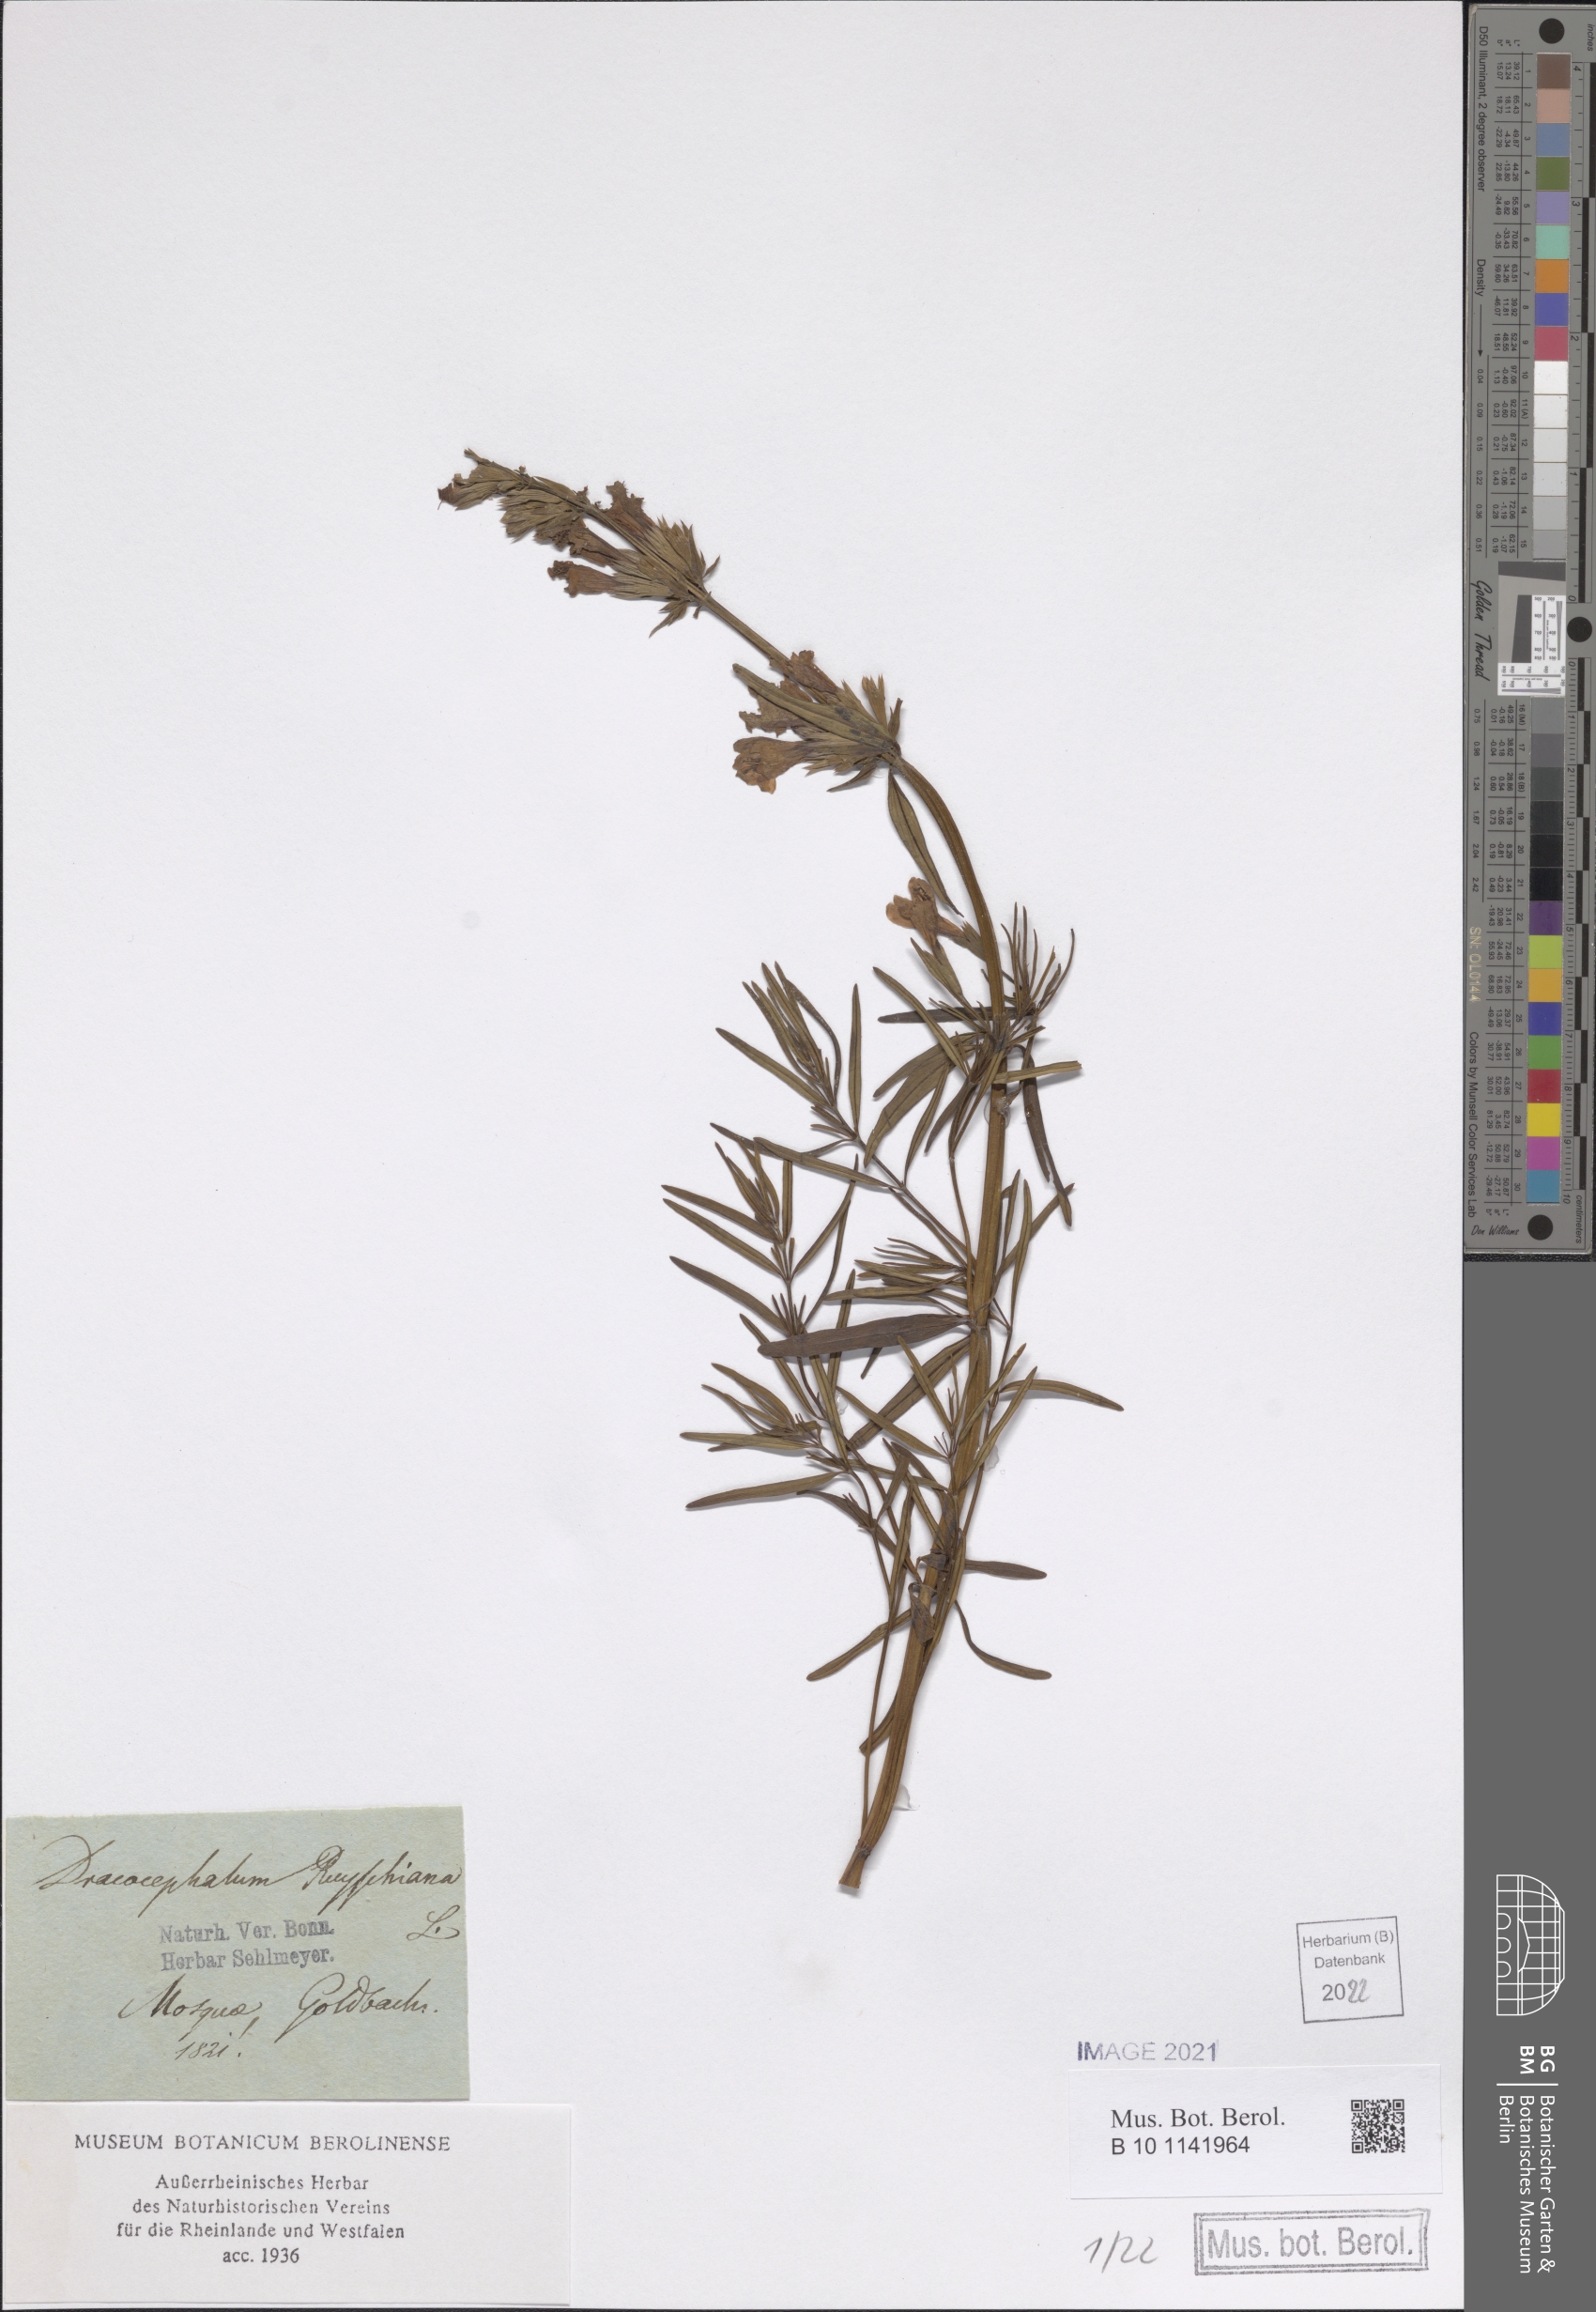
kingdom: Plantae
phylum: Tracheophyta
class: Magnoliopsida
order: Lamiales
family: Lamiaceae
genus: Dracocephalum
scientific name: Dracocephalum ruyschiana
